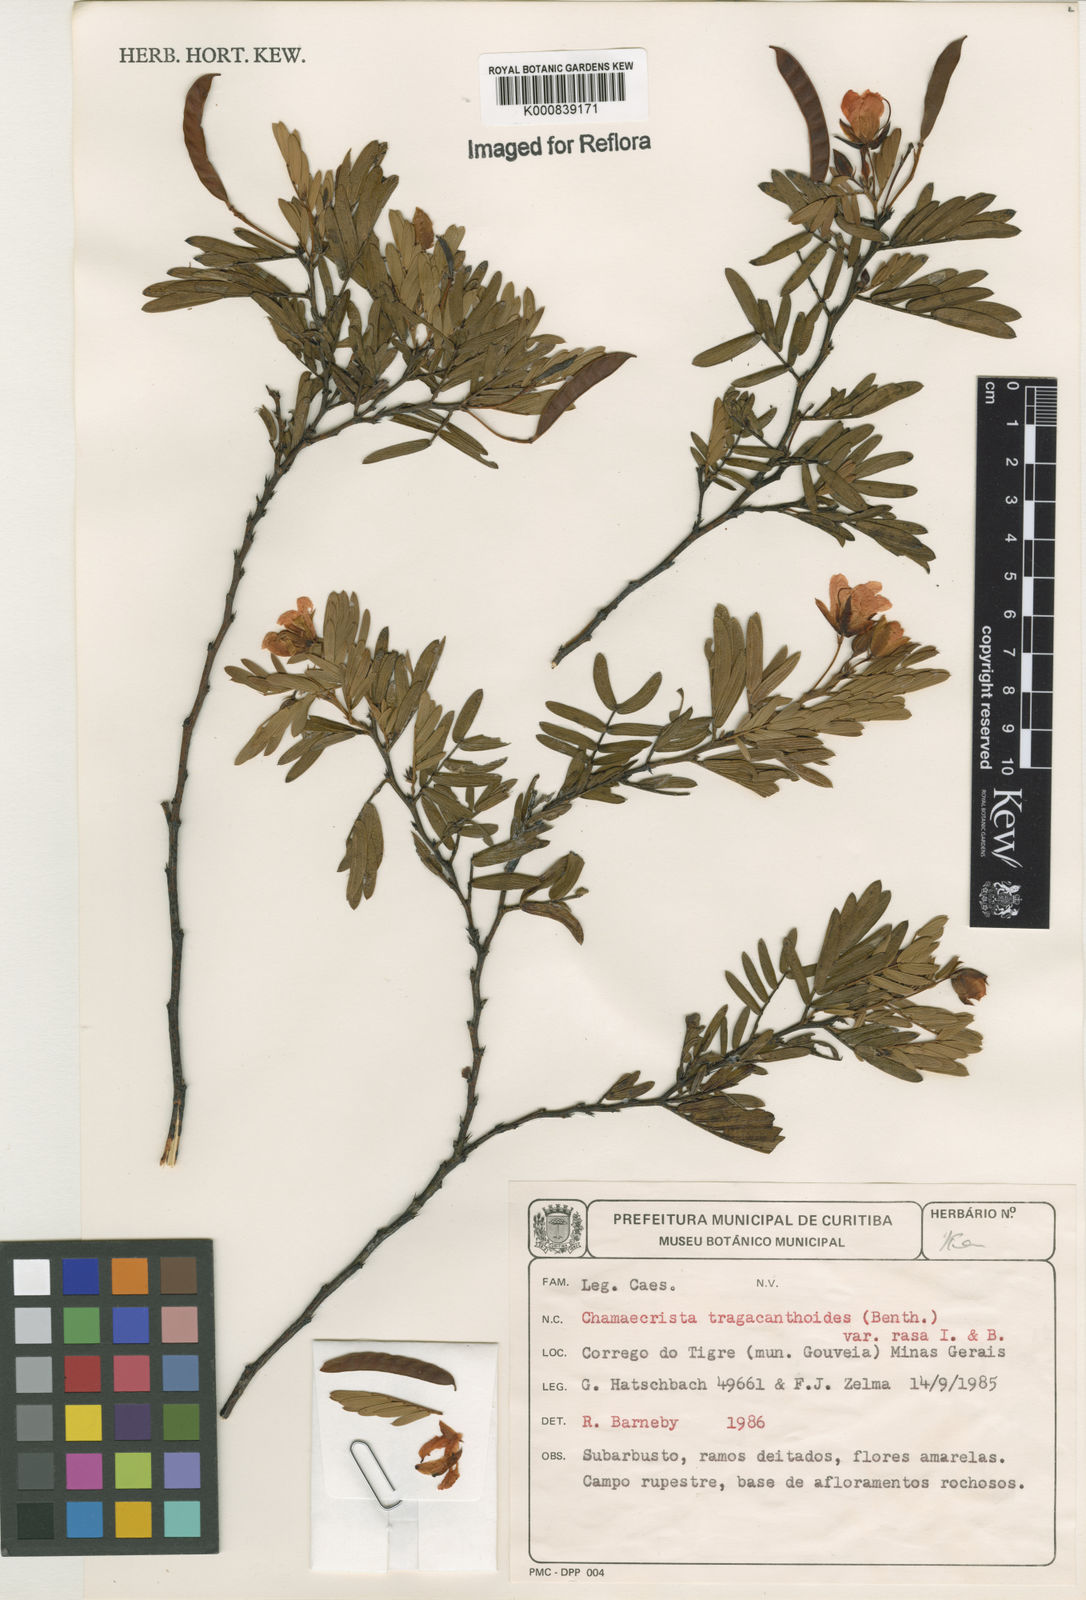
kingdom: Plantae
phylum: Tracheophyta
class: Magnoliopsida
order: Fabales
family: Fabaceae
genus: Chamaecrista
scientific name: Chamaecrista tragacanthoides
